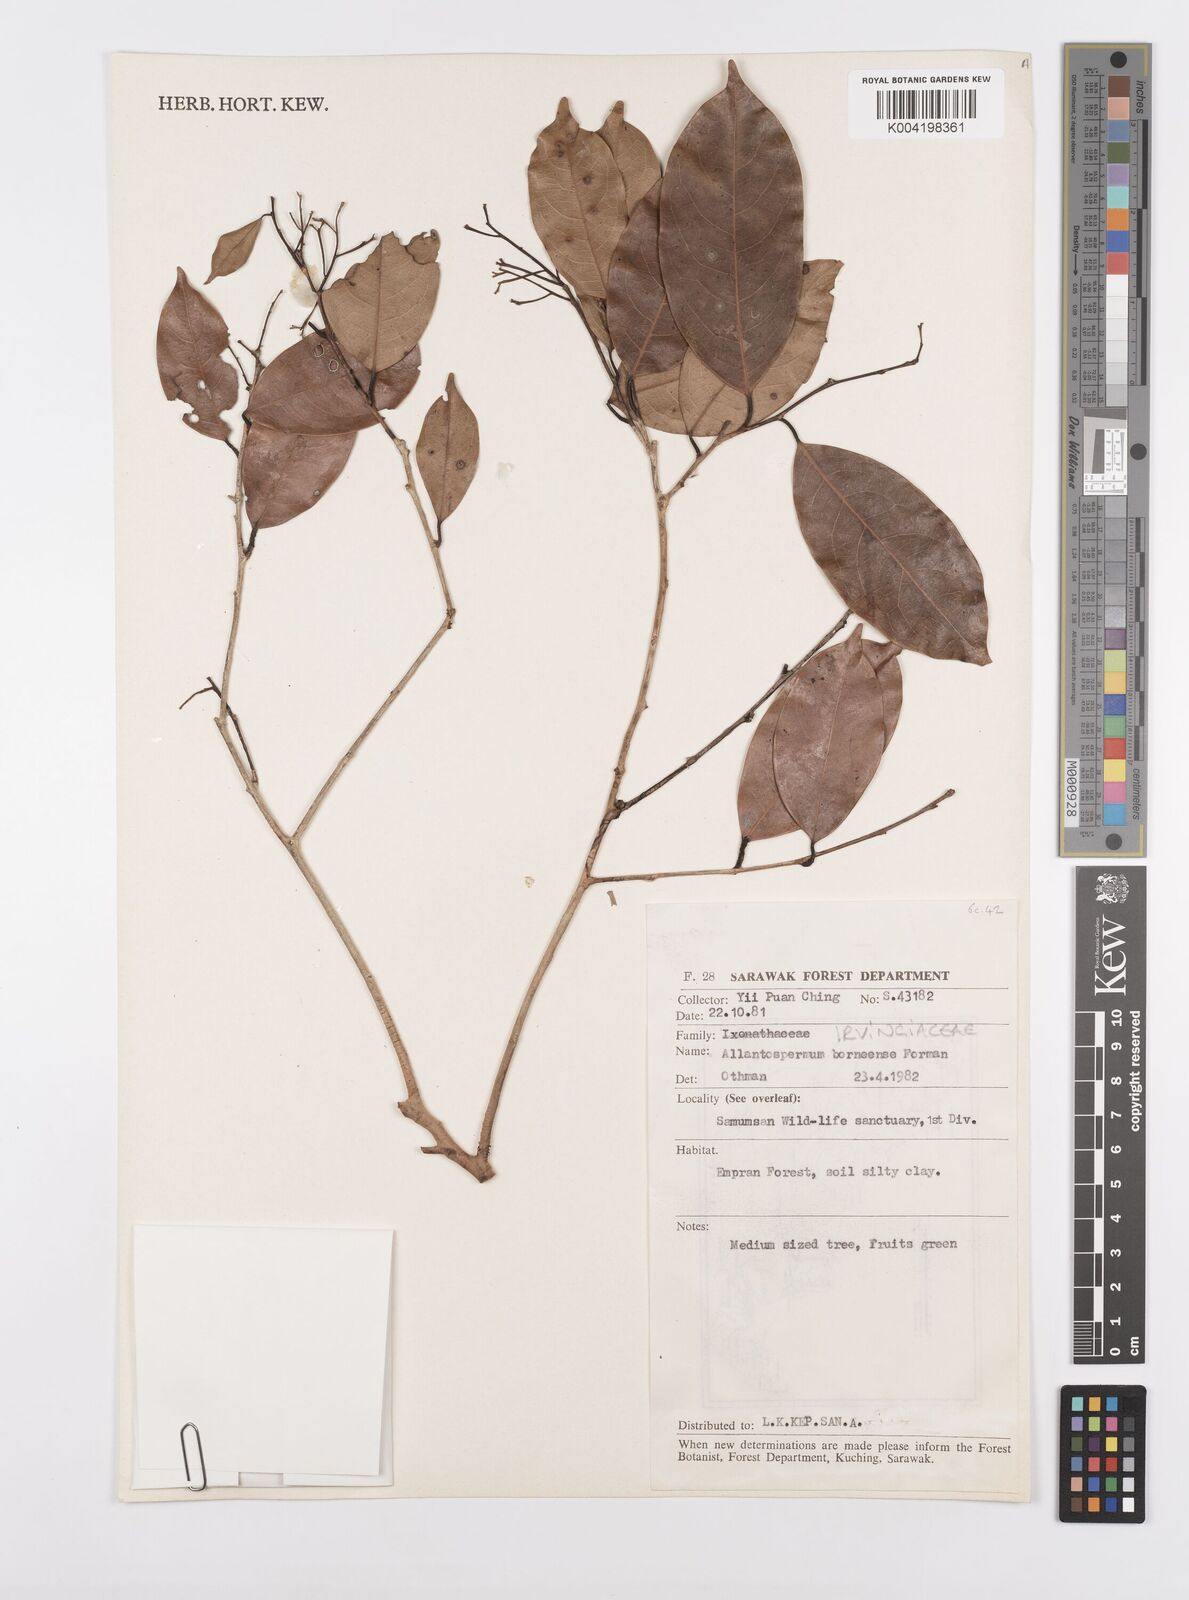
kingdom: Plantae
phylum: Tracheophyta
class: Magnoliopsida
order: Malpighiales
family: Ixonanthaceae
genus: Allantospermum
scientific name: Allantospermum borneense
